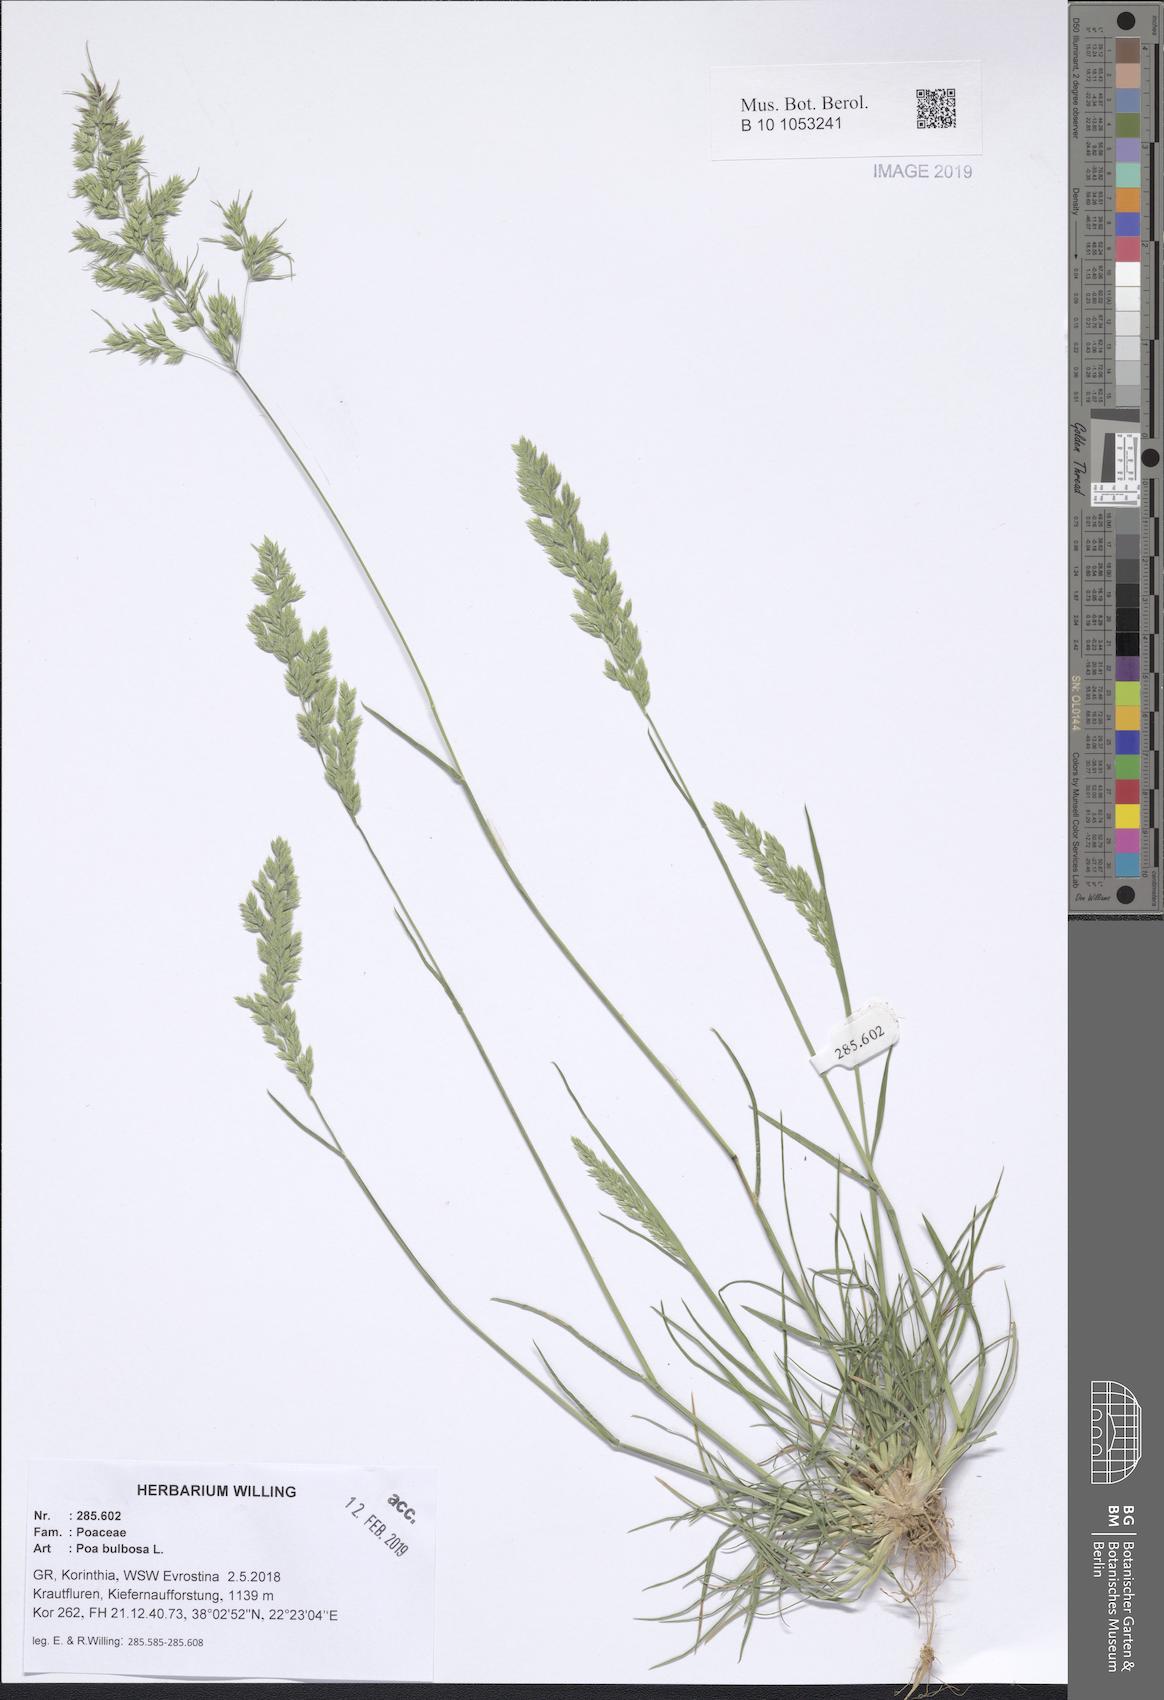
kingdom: Plantae
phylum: Tracheophyta
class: Liliopsida
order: Poales
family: Poaceae
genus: Poa
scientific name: Poa bulbosa
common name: Bulbous bluegrass
